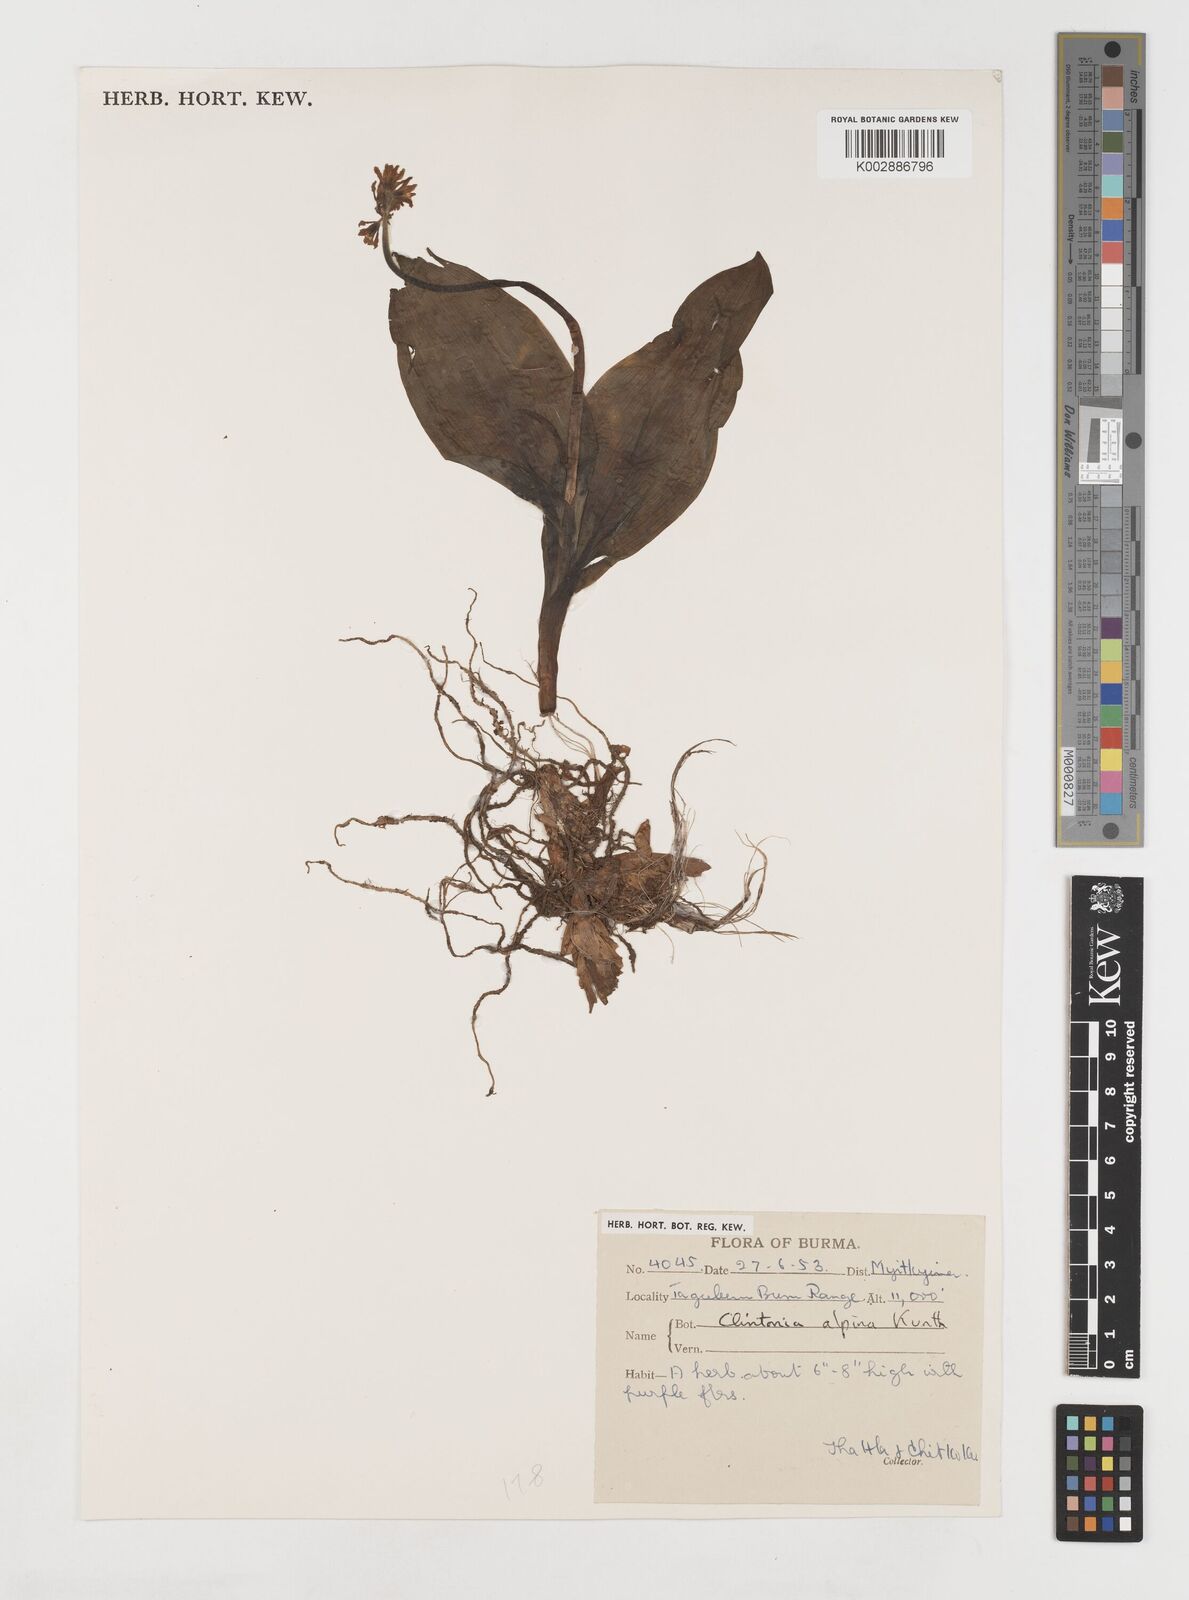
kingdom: Plantae
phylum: Tracheophyta
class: Liliopsida
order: Liliales
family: Liliaceae
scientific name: Liliaceae
